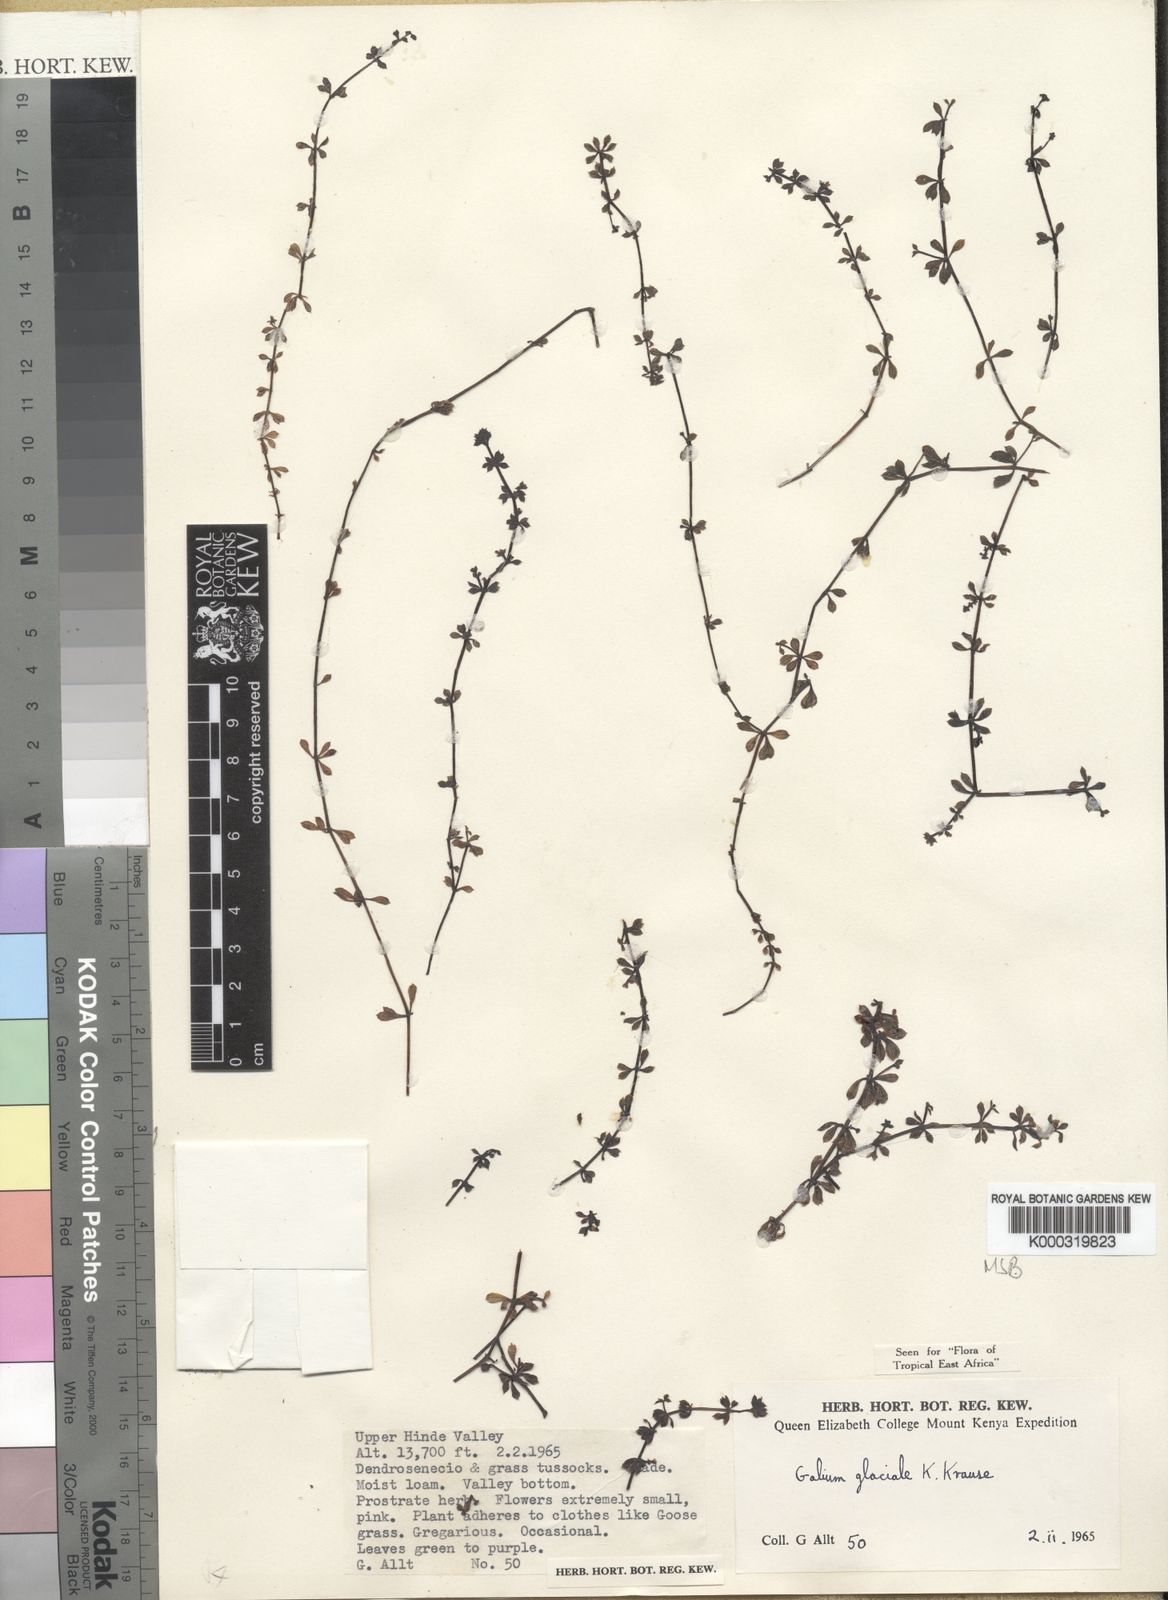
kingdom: Plantae
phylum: Tracheophyta
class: Magnoliopsida
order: Gentianales
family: Rubiaceae
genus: Galium
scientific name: Galium glaciale
